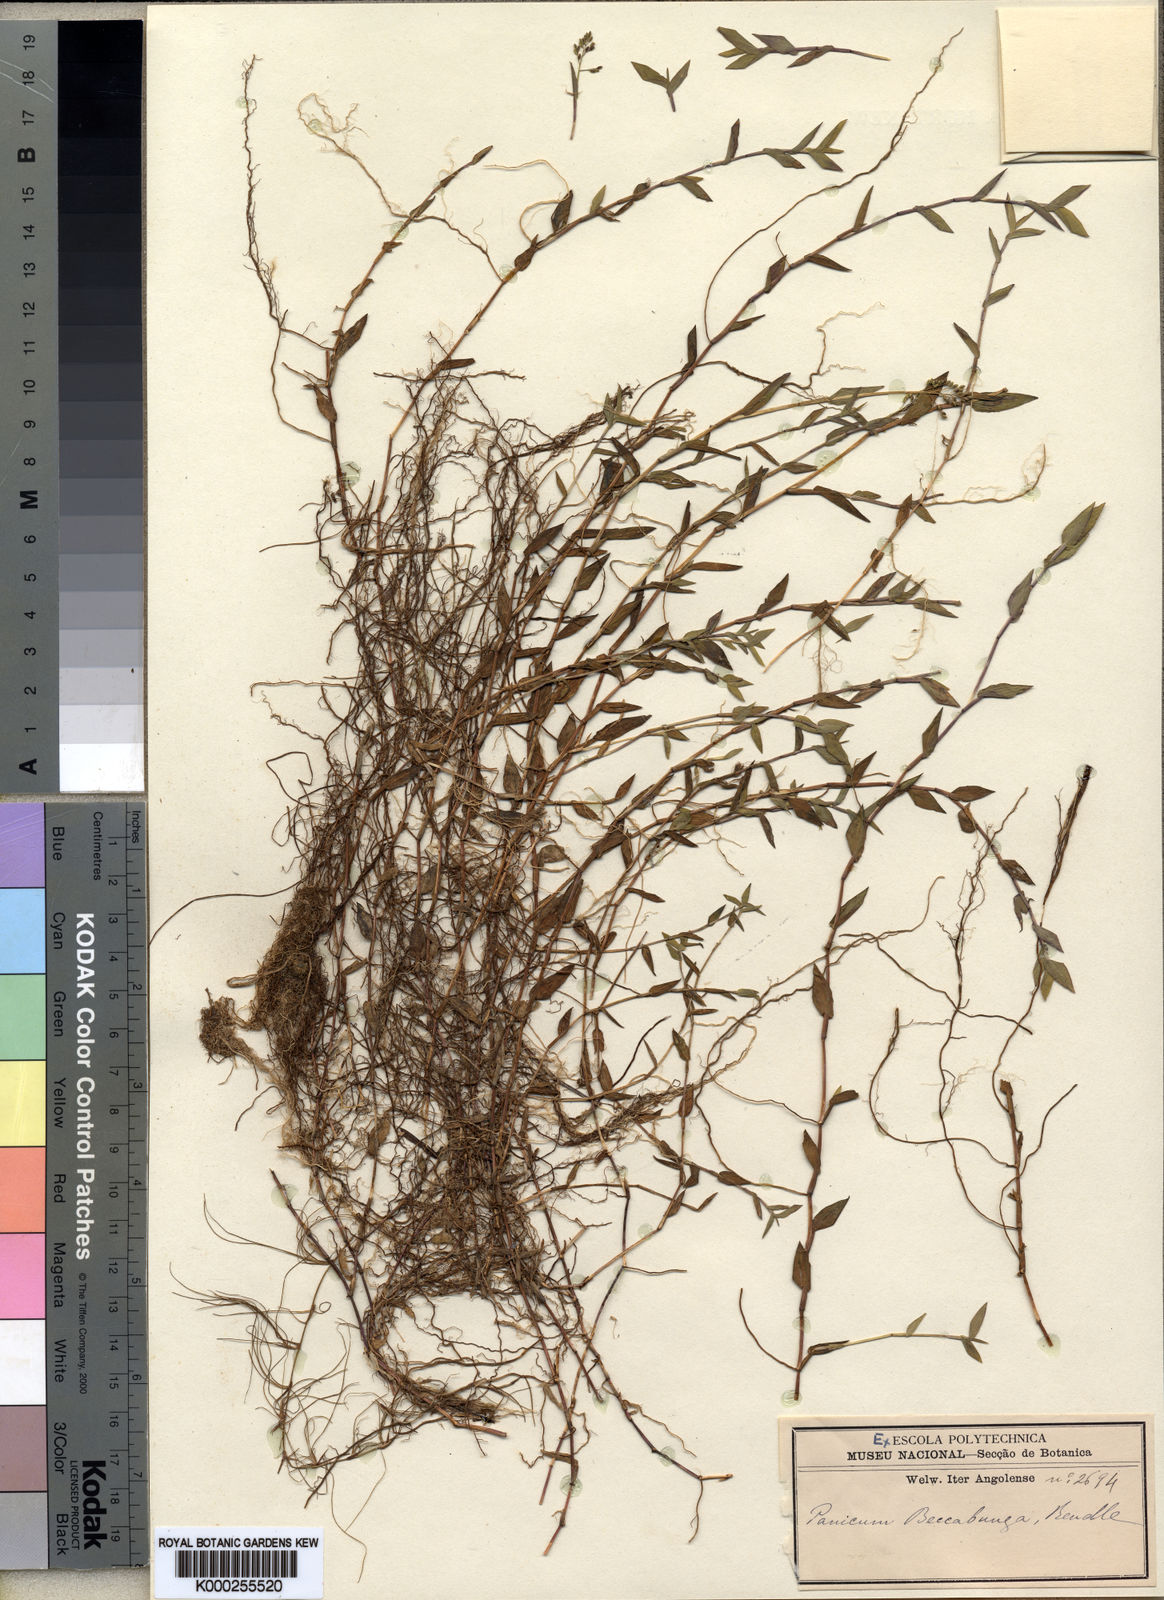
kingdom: Plantae
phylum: Tracheophyta
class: Liliopsida
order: Poales
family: Poaceae
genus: Setaria
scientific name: Setaria
